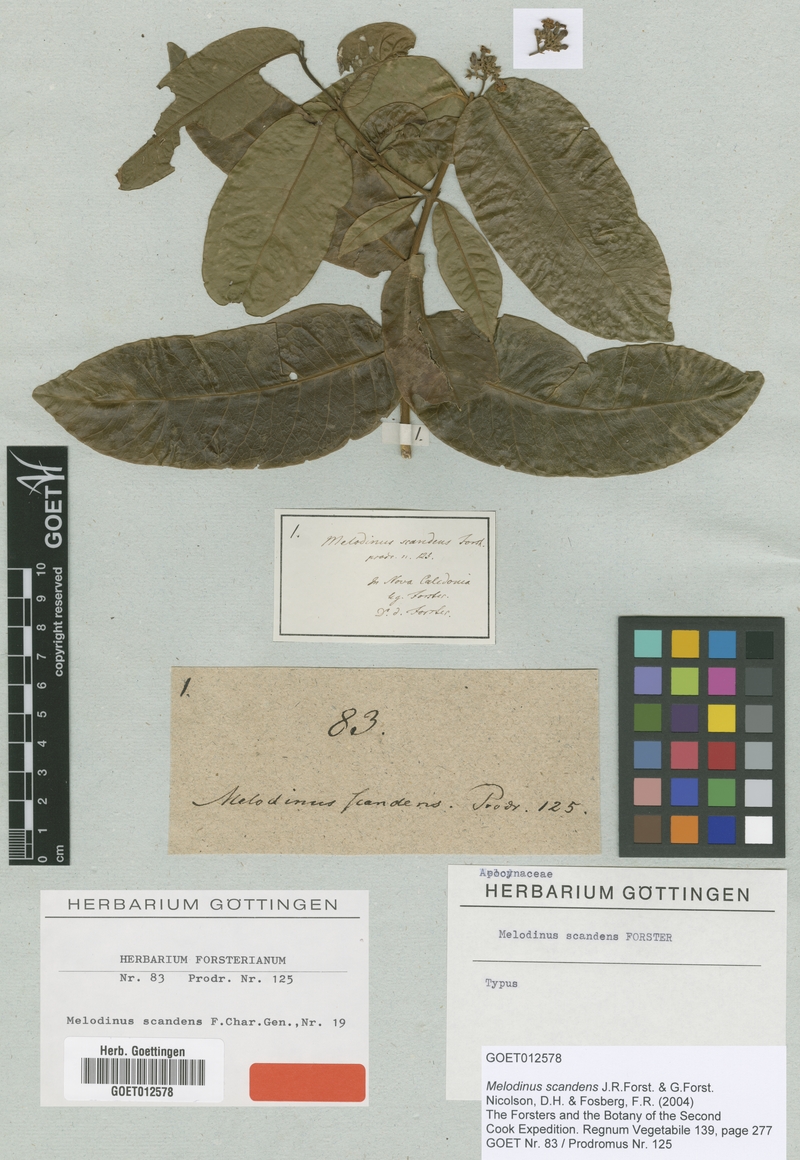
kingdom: Plantae
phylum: Tracheophyta
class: Magnoliopsida
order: Gentianales
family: Apocynaceae
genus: Melodinus
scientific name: Melodinus scandens
